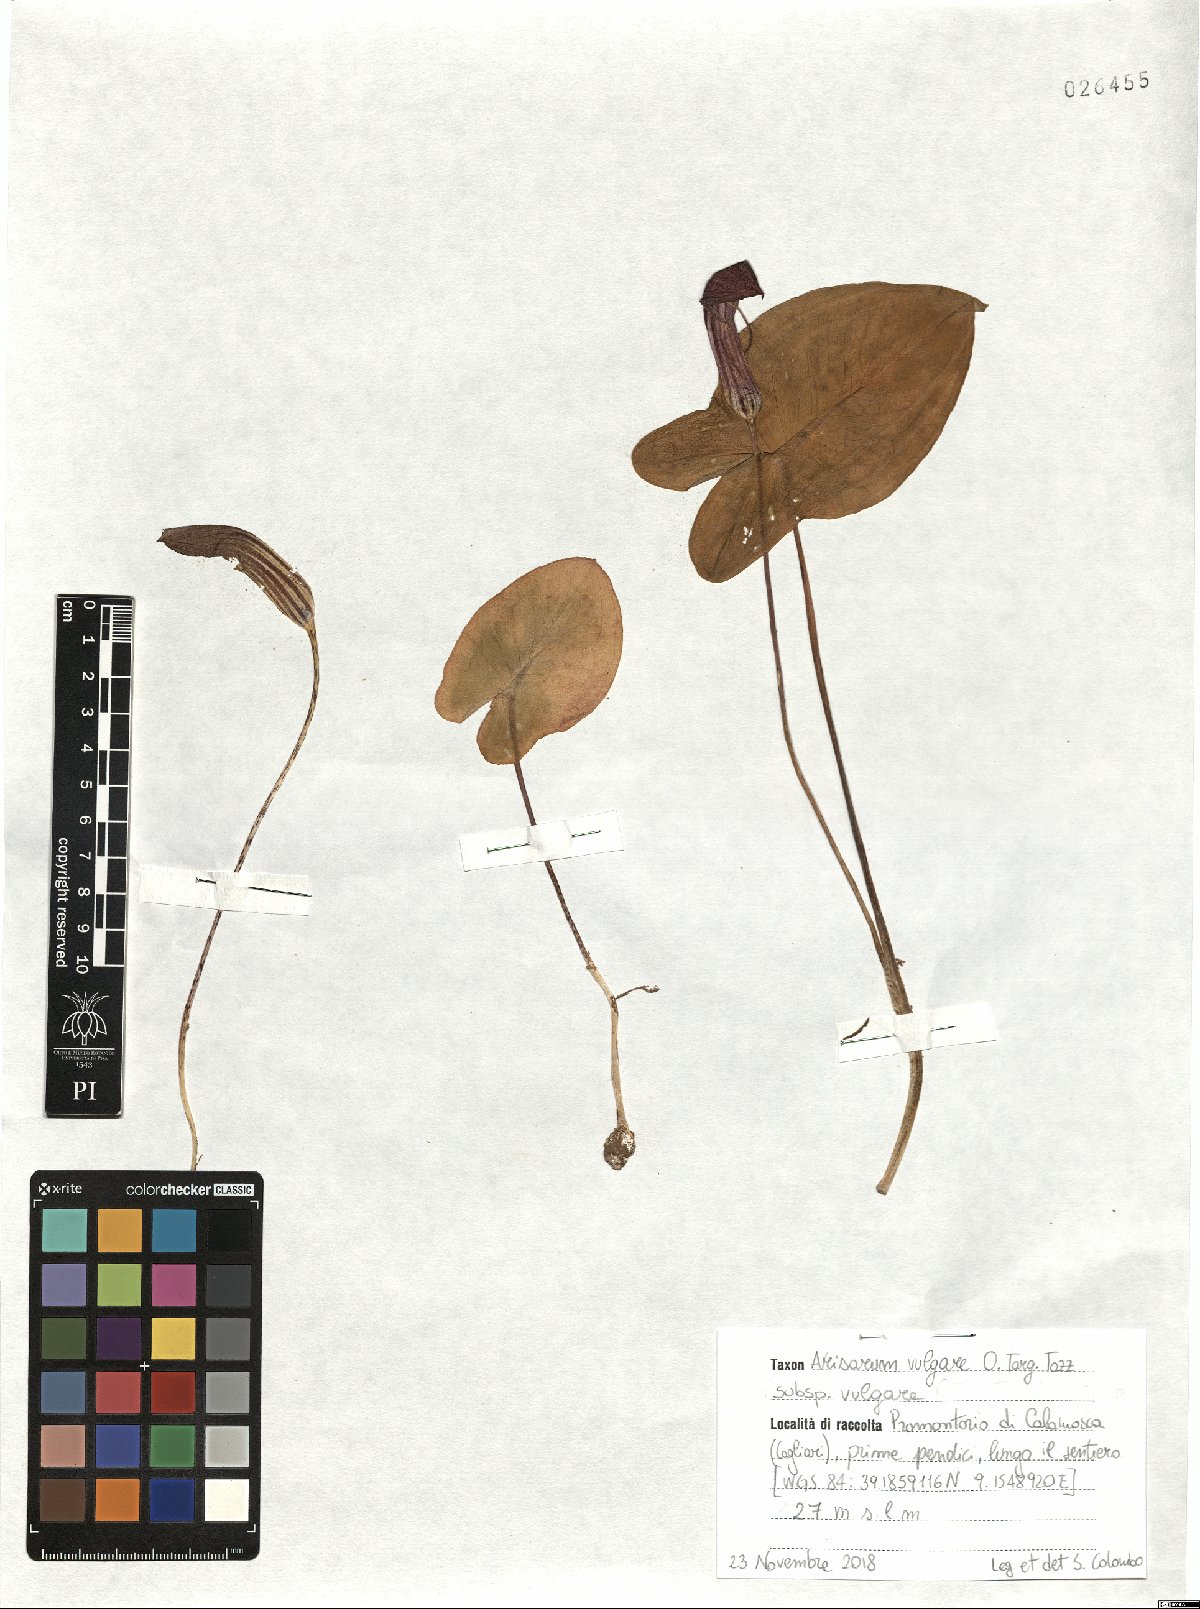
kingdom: Plantae
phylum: Tracheophyta
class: Liliopsida
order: Alismatales
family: Araceae
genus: Arisarum
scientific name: Arisarum vulgare
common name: Common arisarum
